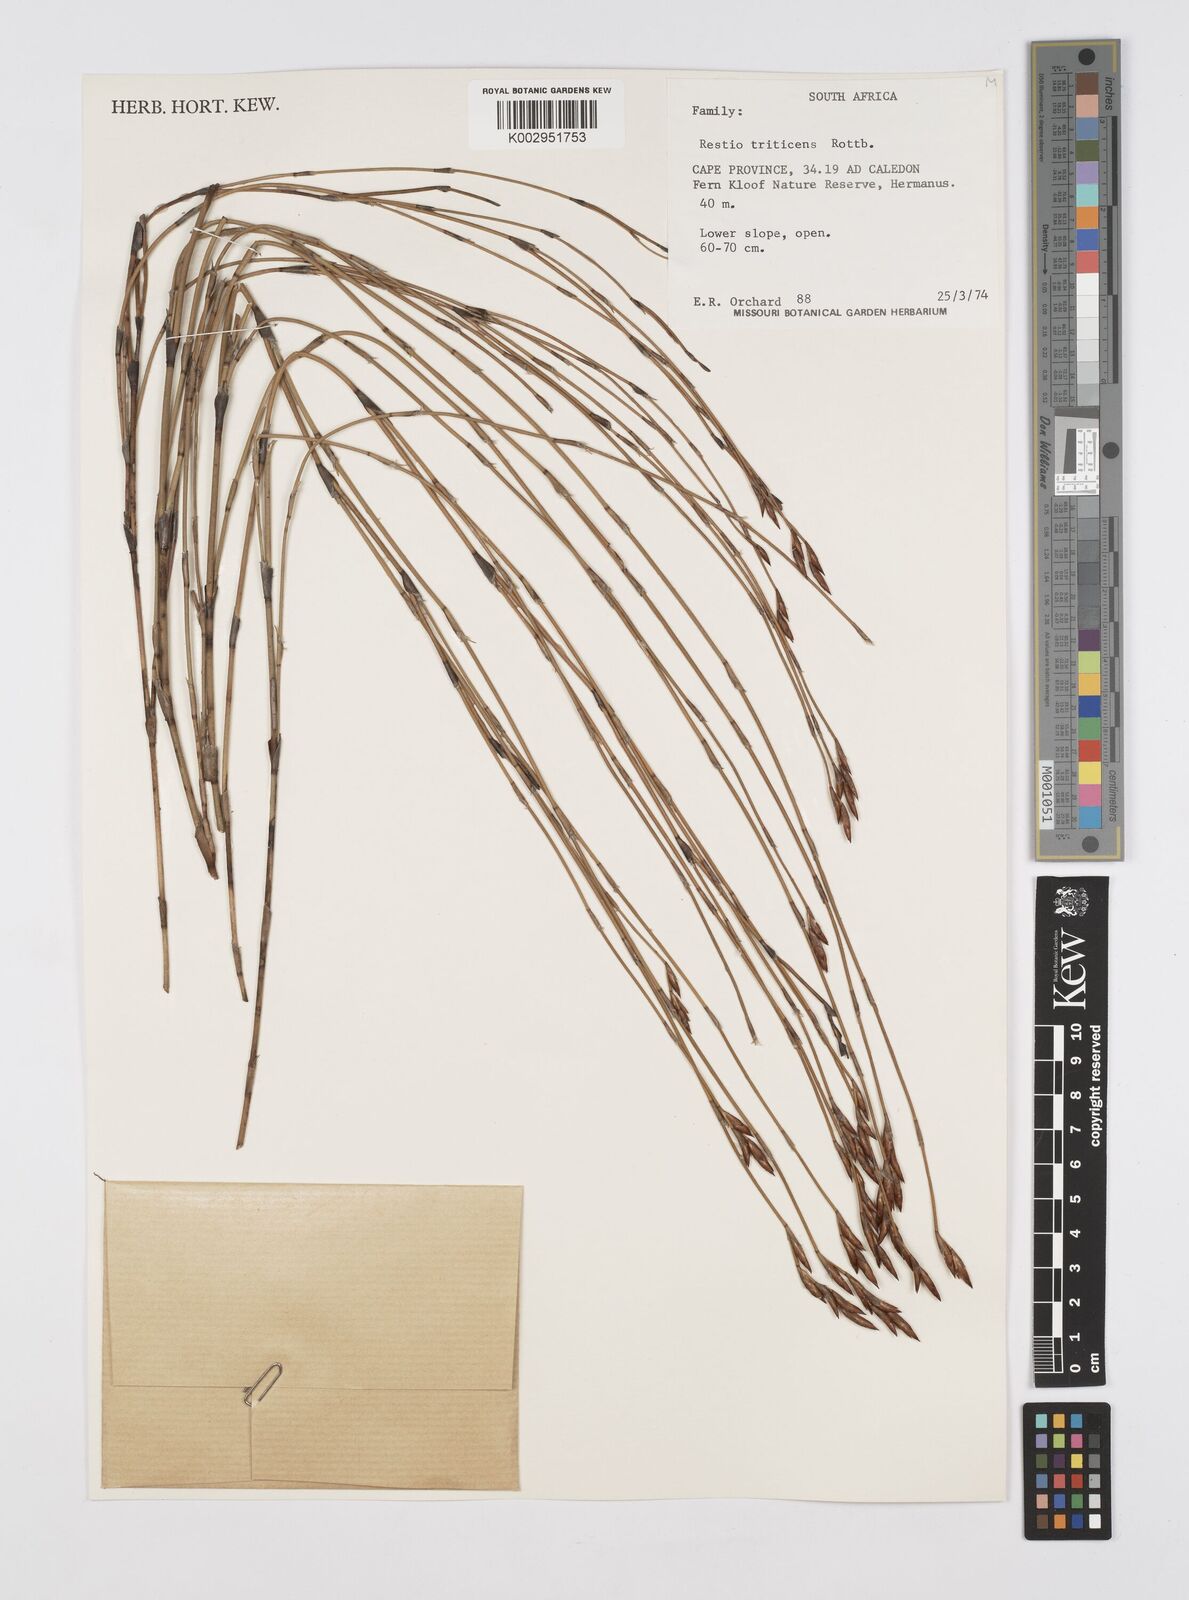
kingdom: Plantae
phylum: Tracheophyta
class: Liliopsida
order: Poales
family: Restionaceae
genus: Restio
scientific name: Restio triticeus
